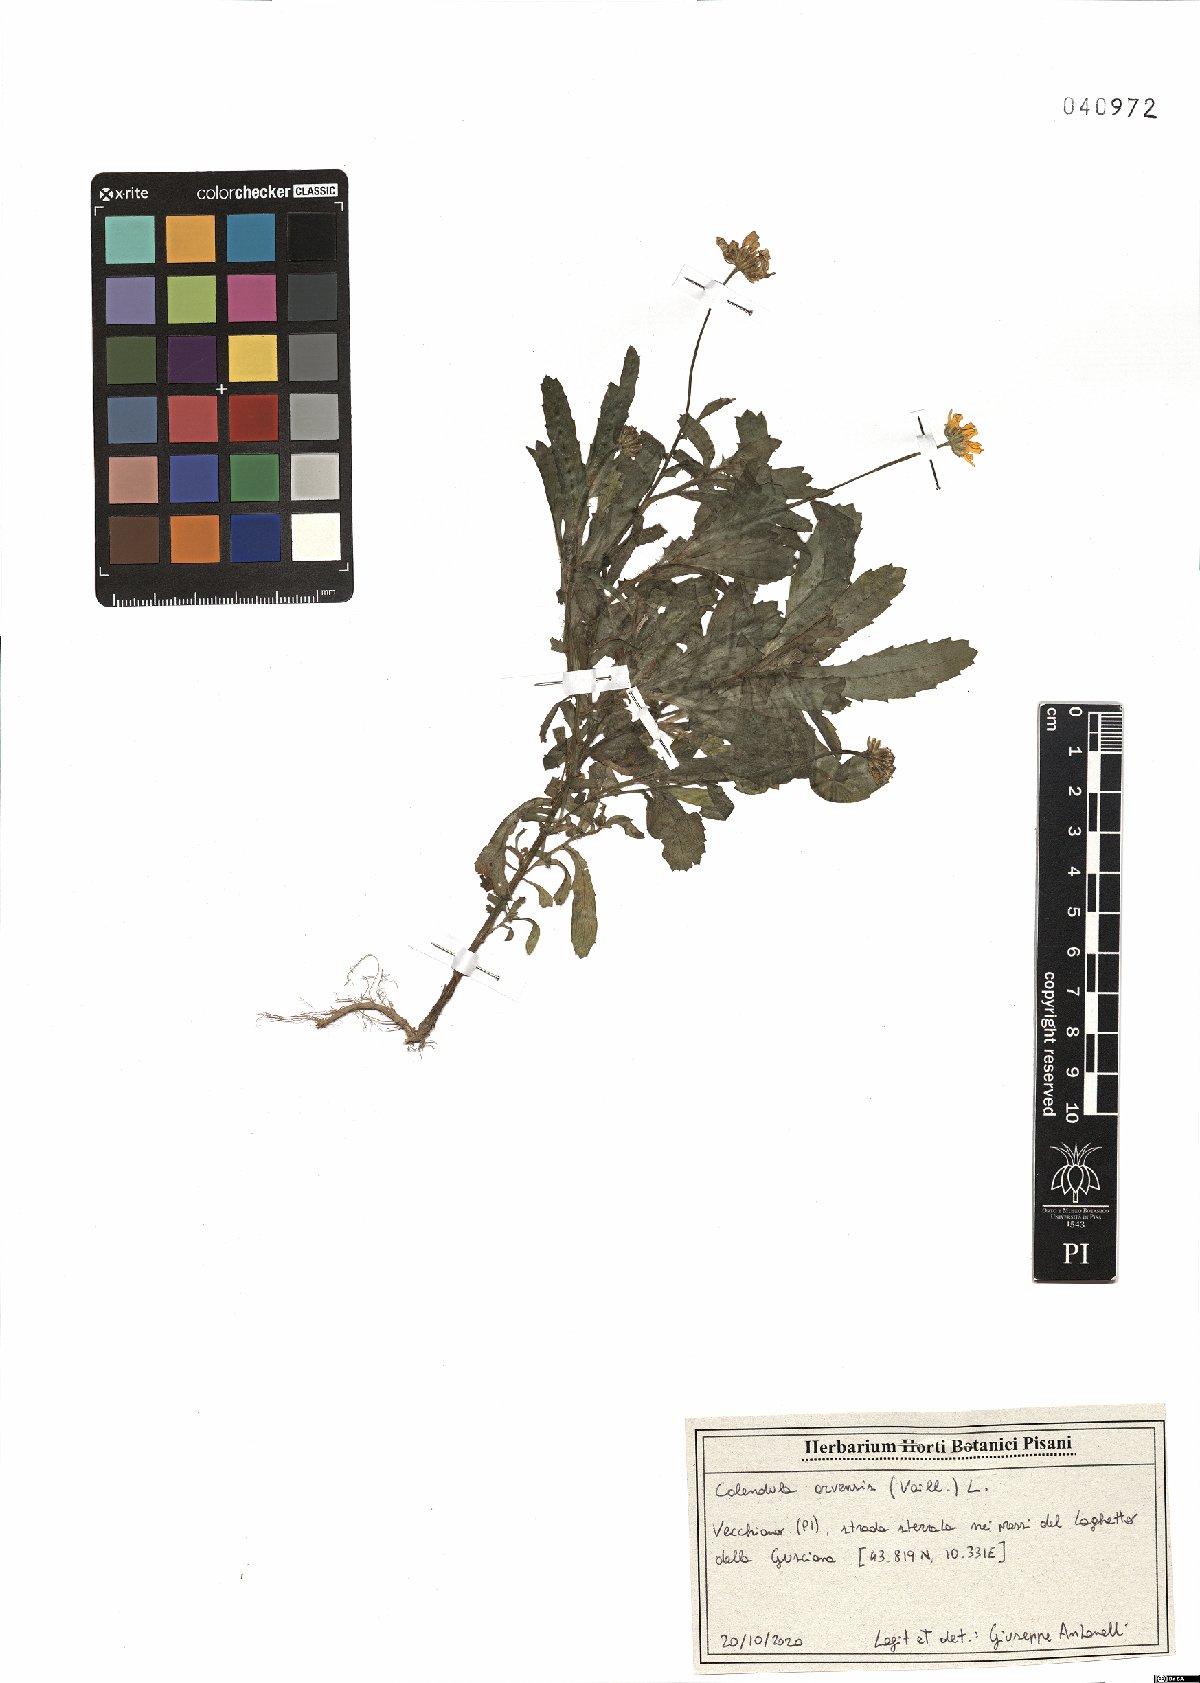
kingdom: Plantae
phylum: Tracheophyta
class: Magnoliopsida
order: Asterales
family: Asteraceae
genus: Calendula
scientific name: Calendula arvensis
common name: Field marigold
